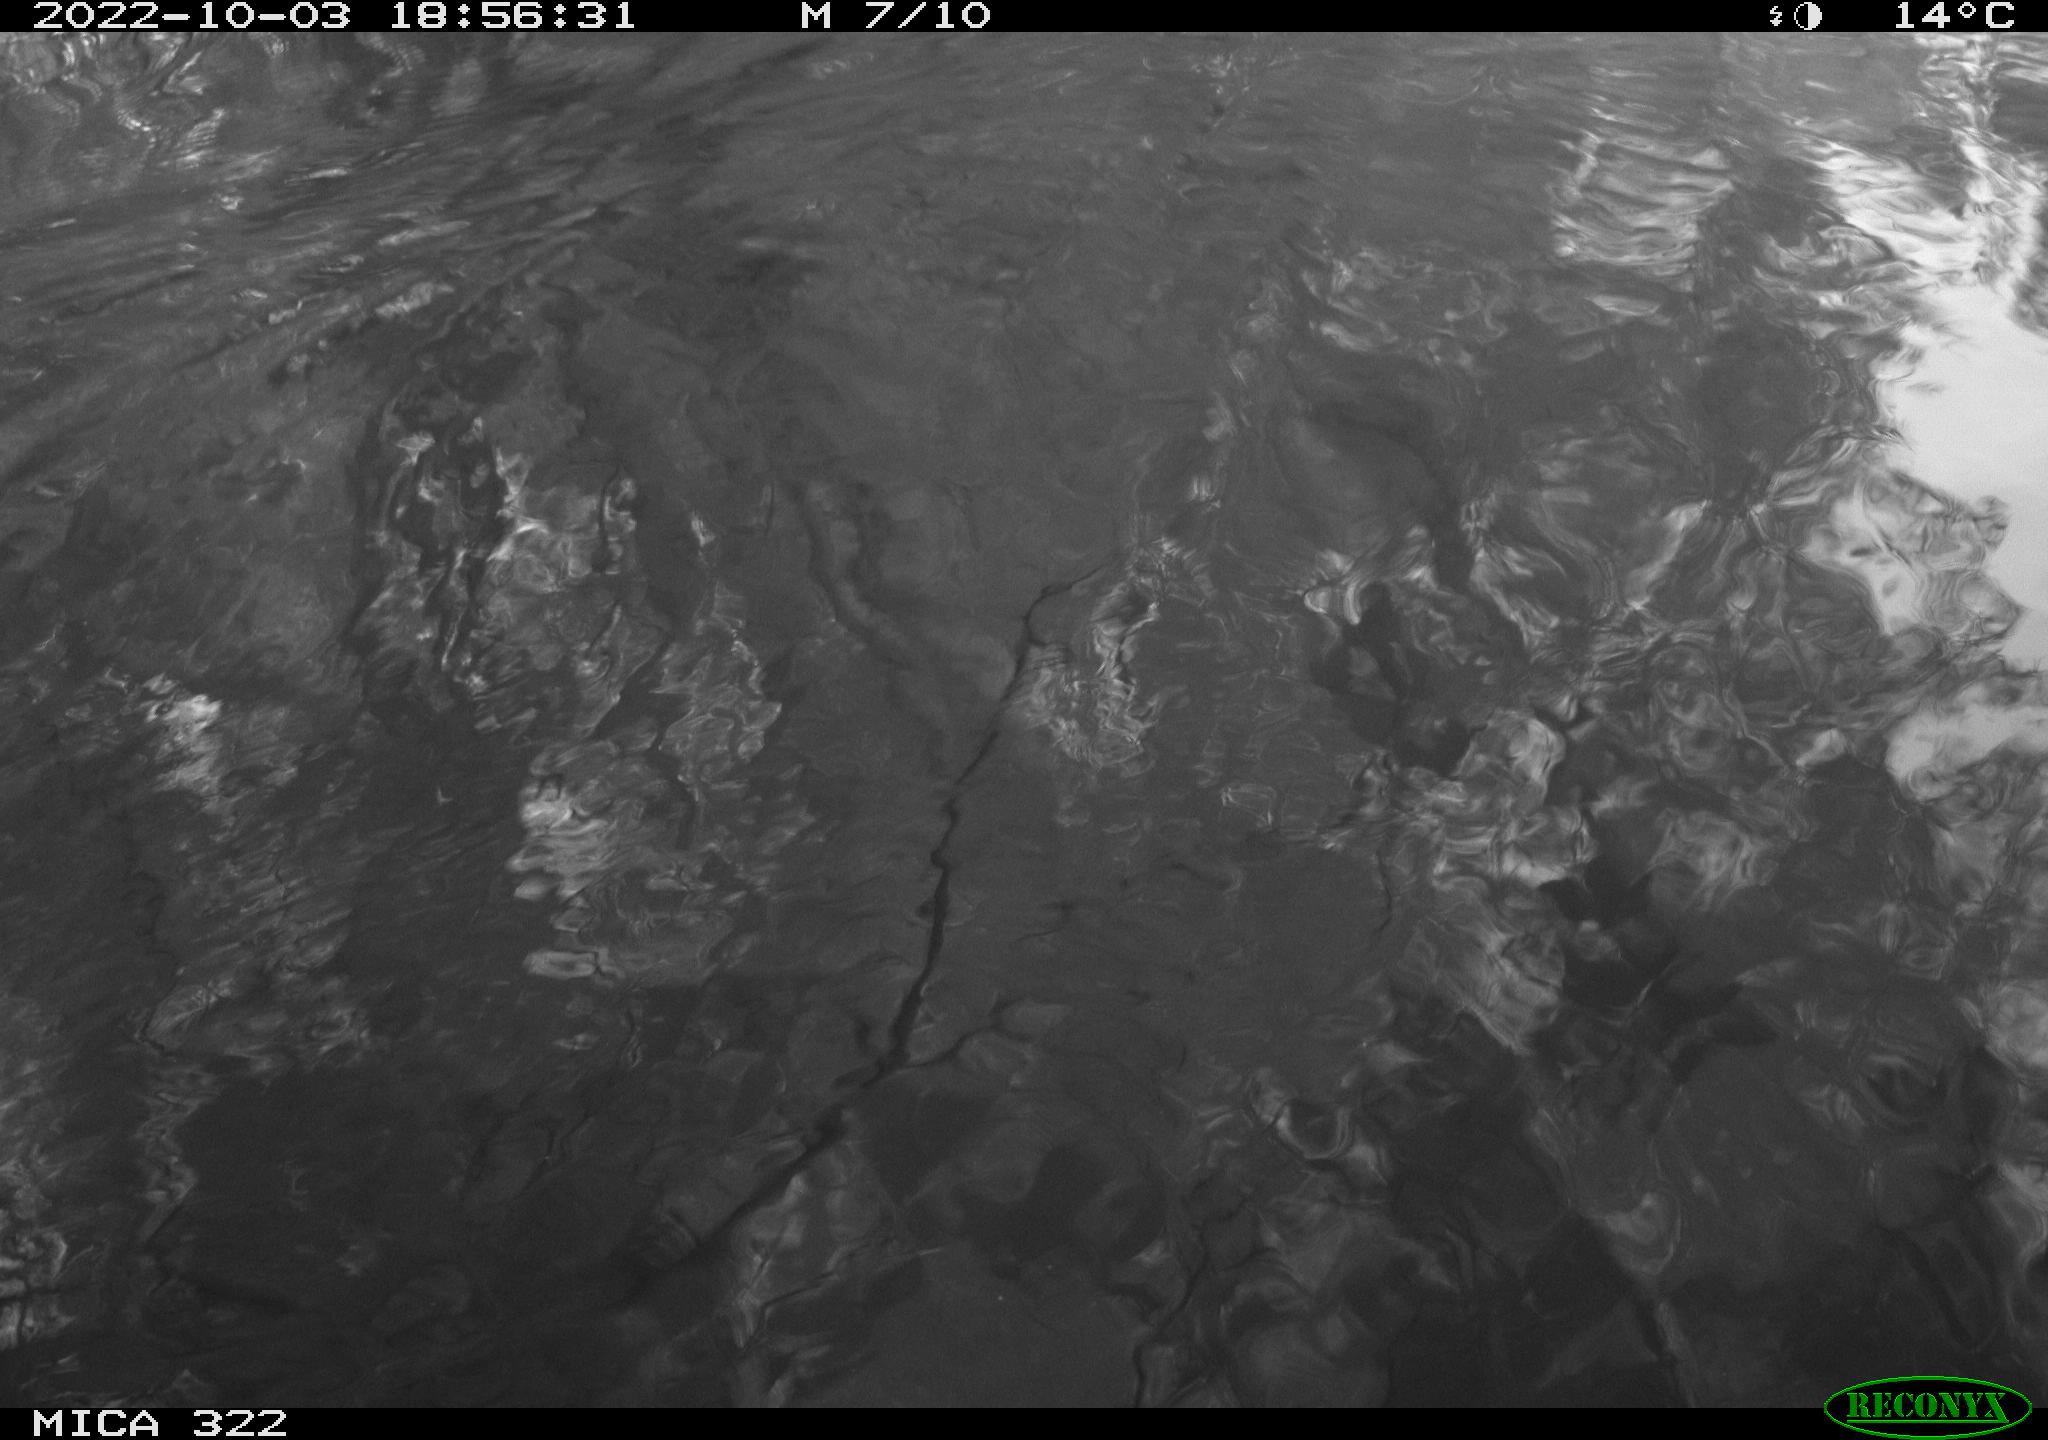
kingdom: Animalia
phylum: Chordata
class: Aves
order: Gruiformes
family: Rallidae
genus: Gallinula
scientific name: Gallinula chloropus
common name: Common moorhen
